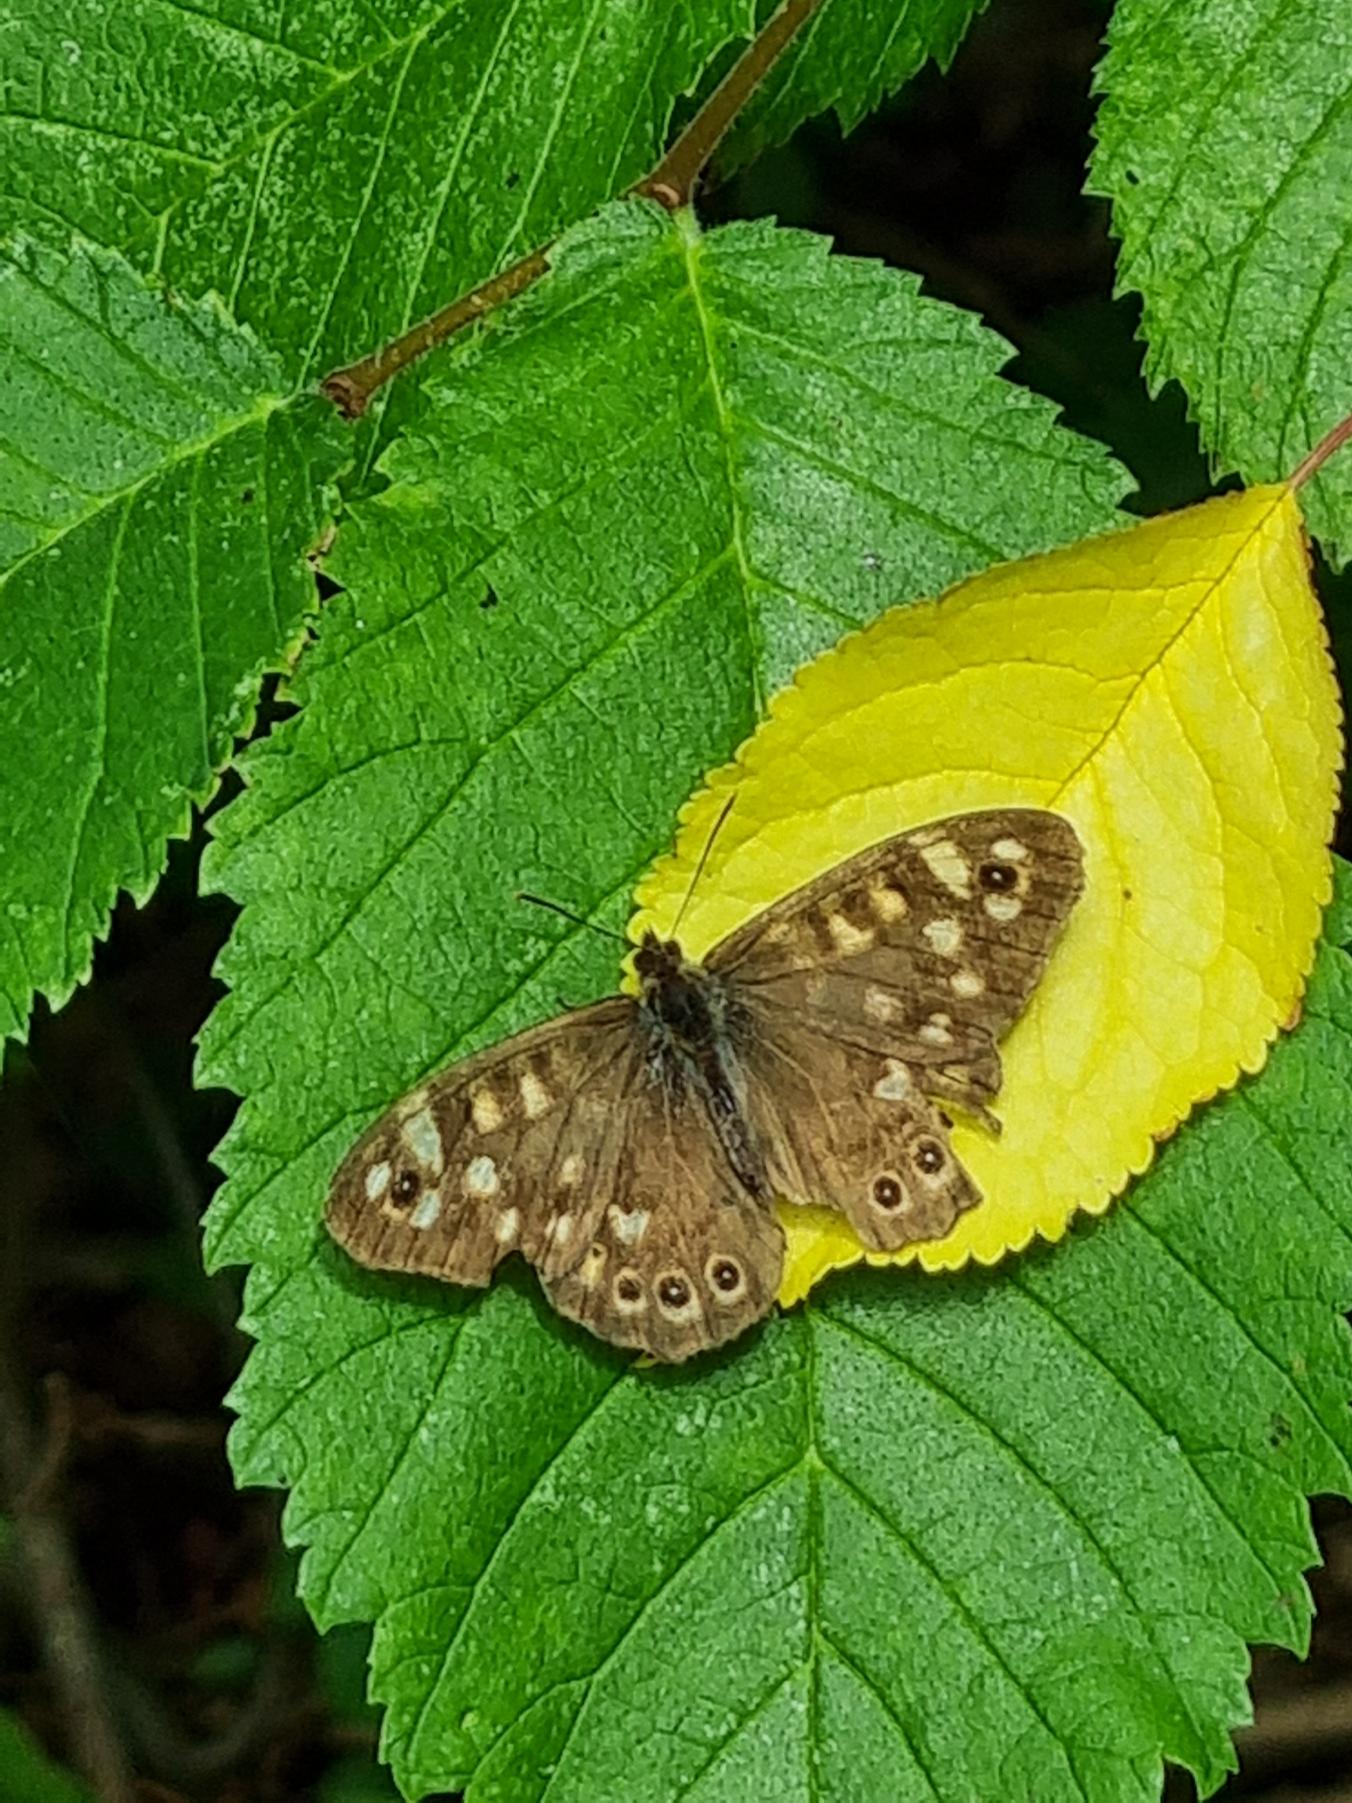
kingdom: Animalia
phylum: Arthropoda
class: Insecta
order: Lepidoptera
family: Nymphalidae
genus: Pararge
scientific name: Pararge aegeria
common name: Skovrandøje
